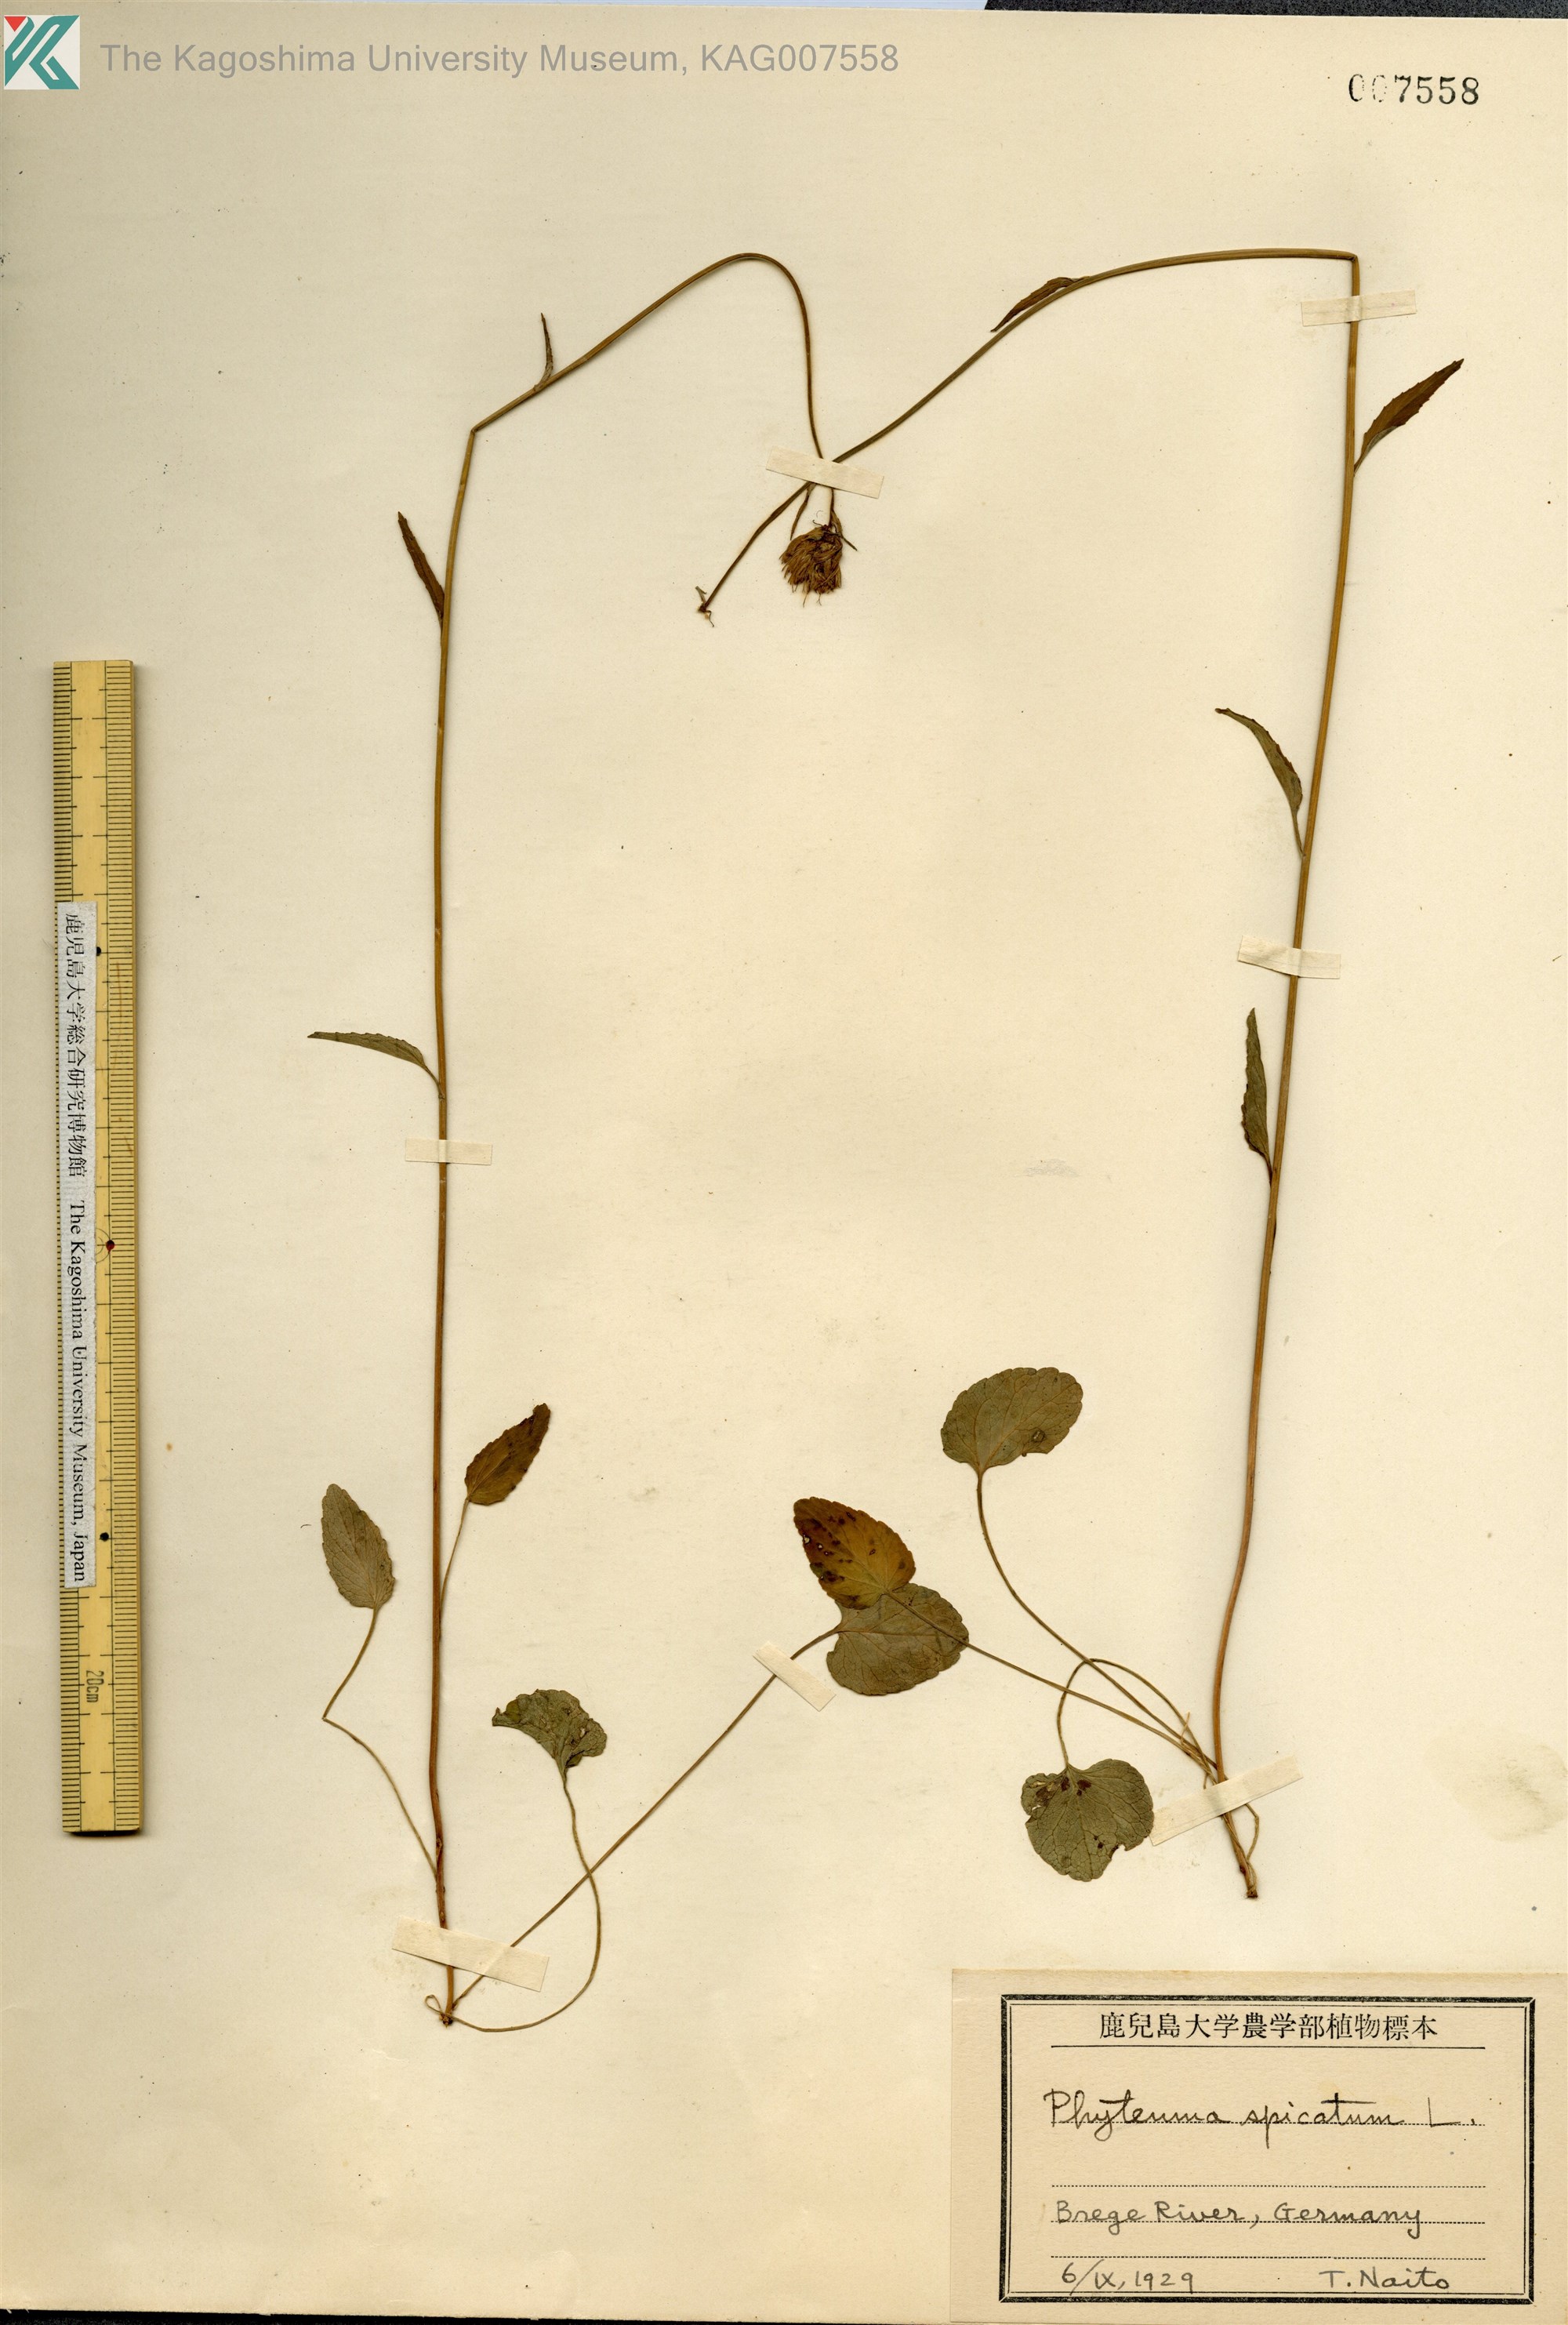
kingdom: Plantae
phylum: Tracheophyta
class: Magnoliopsida
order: Asterales
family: Campanulaceae
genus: Phyteuma
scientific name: Phyteuma spicatum
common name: Spiked rampion
